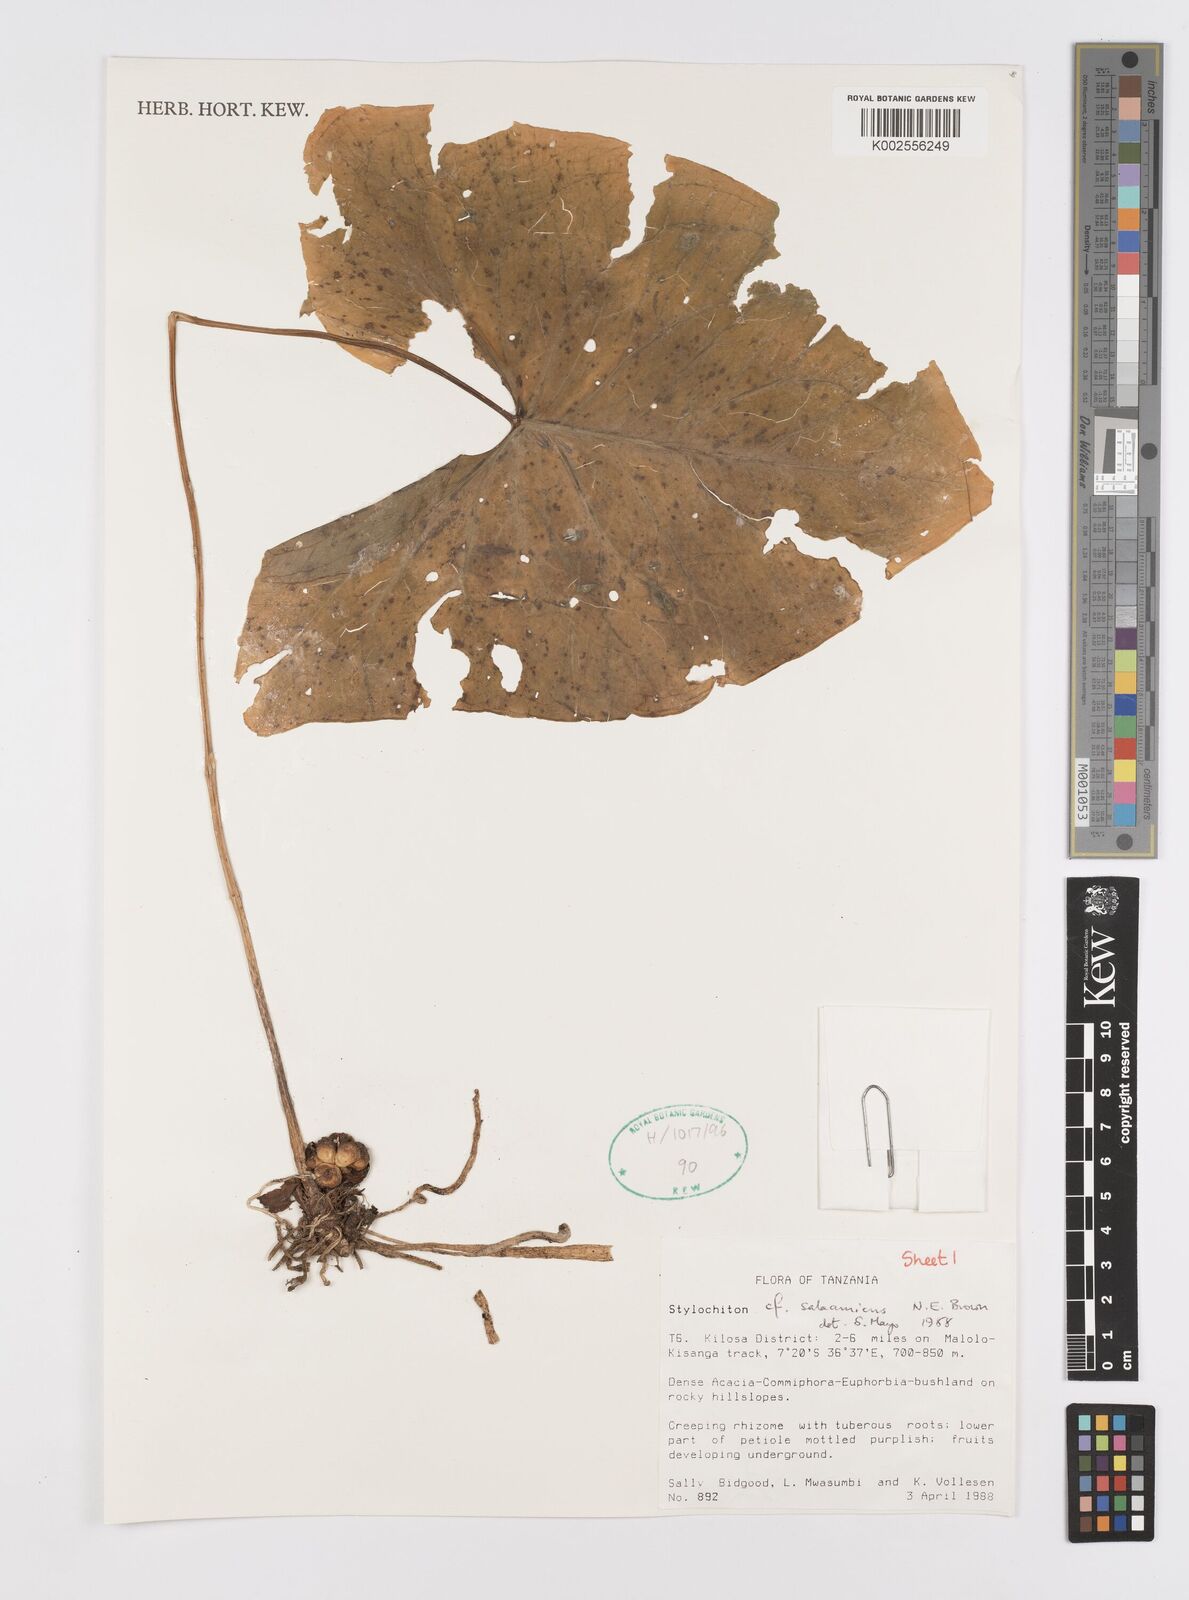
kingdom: Plantae
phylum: Tracheophyta
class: Liliopsida
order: Alismatales
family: Araceae
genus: Stylochaeton
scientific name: Stylochaeton salaamicum
